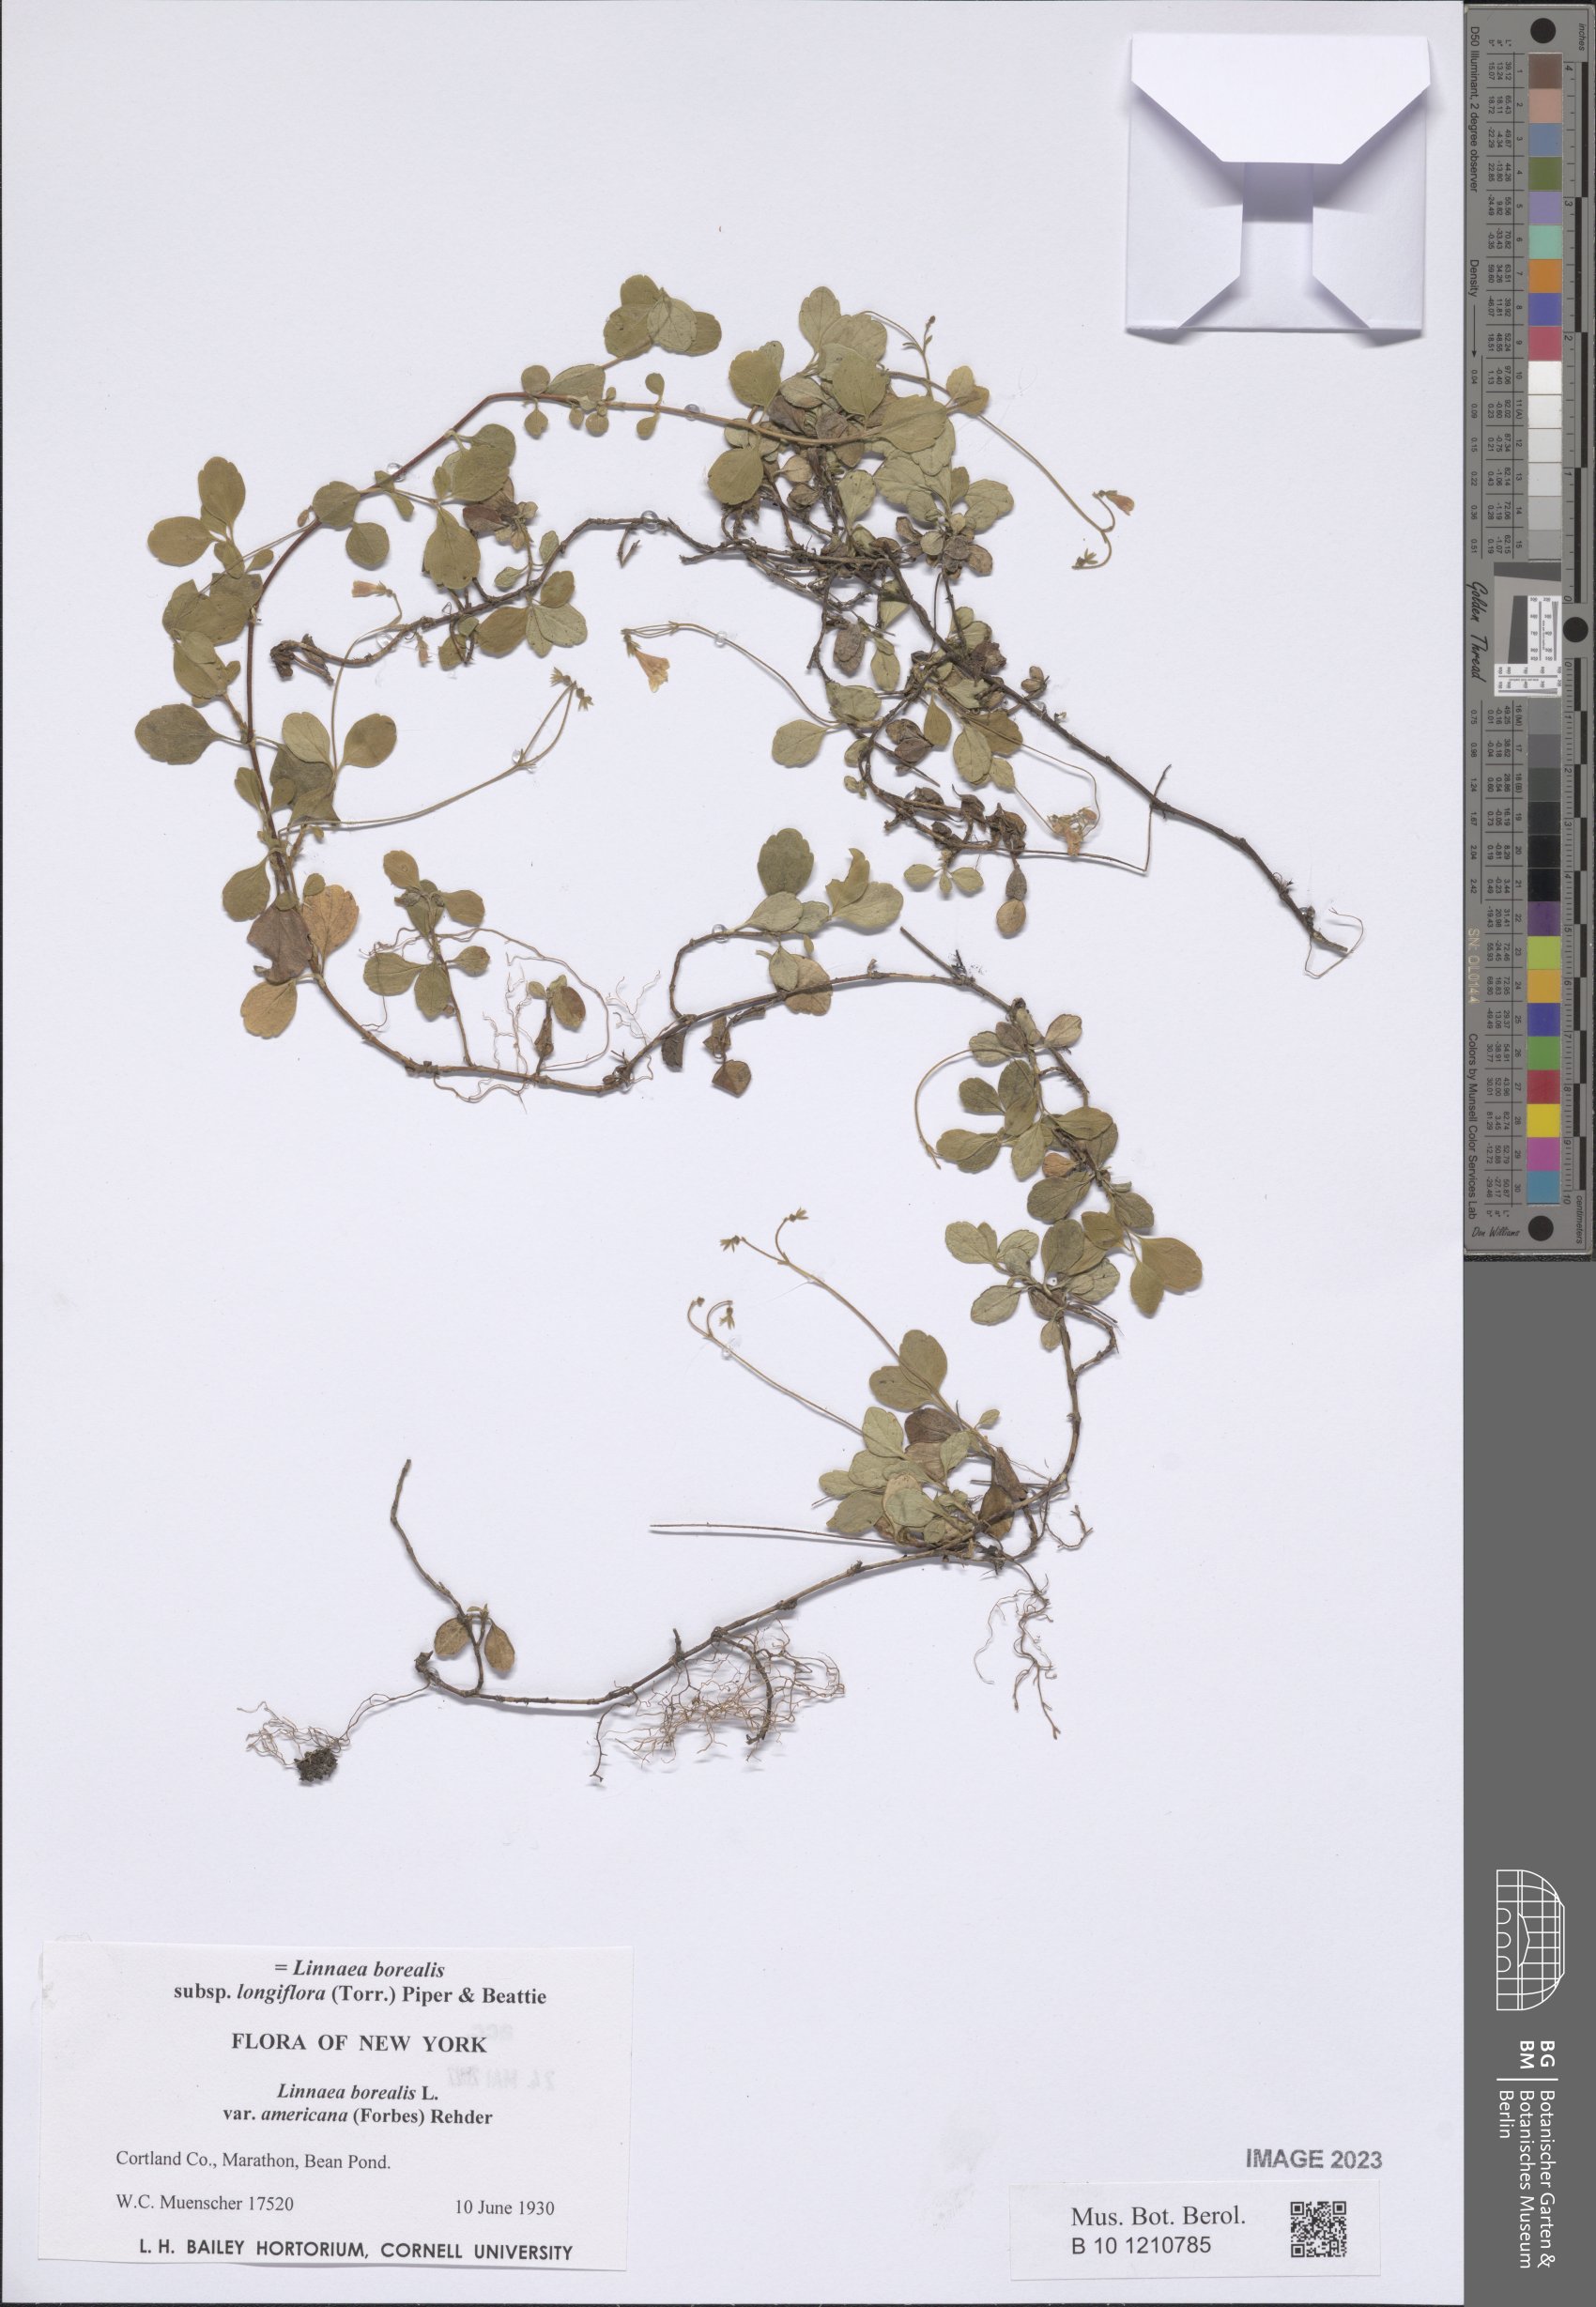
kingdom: Plantae
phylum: Tracheophyta
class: Magnoliopsida
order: Dipsacales
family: Caprifoliaceae
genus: Linnaea
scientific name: Linnaea borealis
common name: Twinflower
